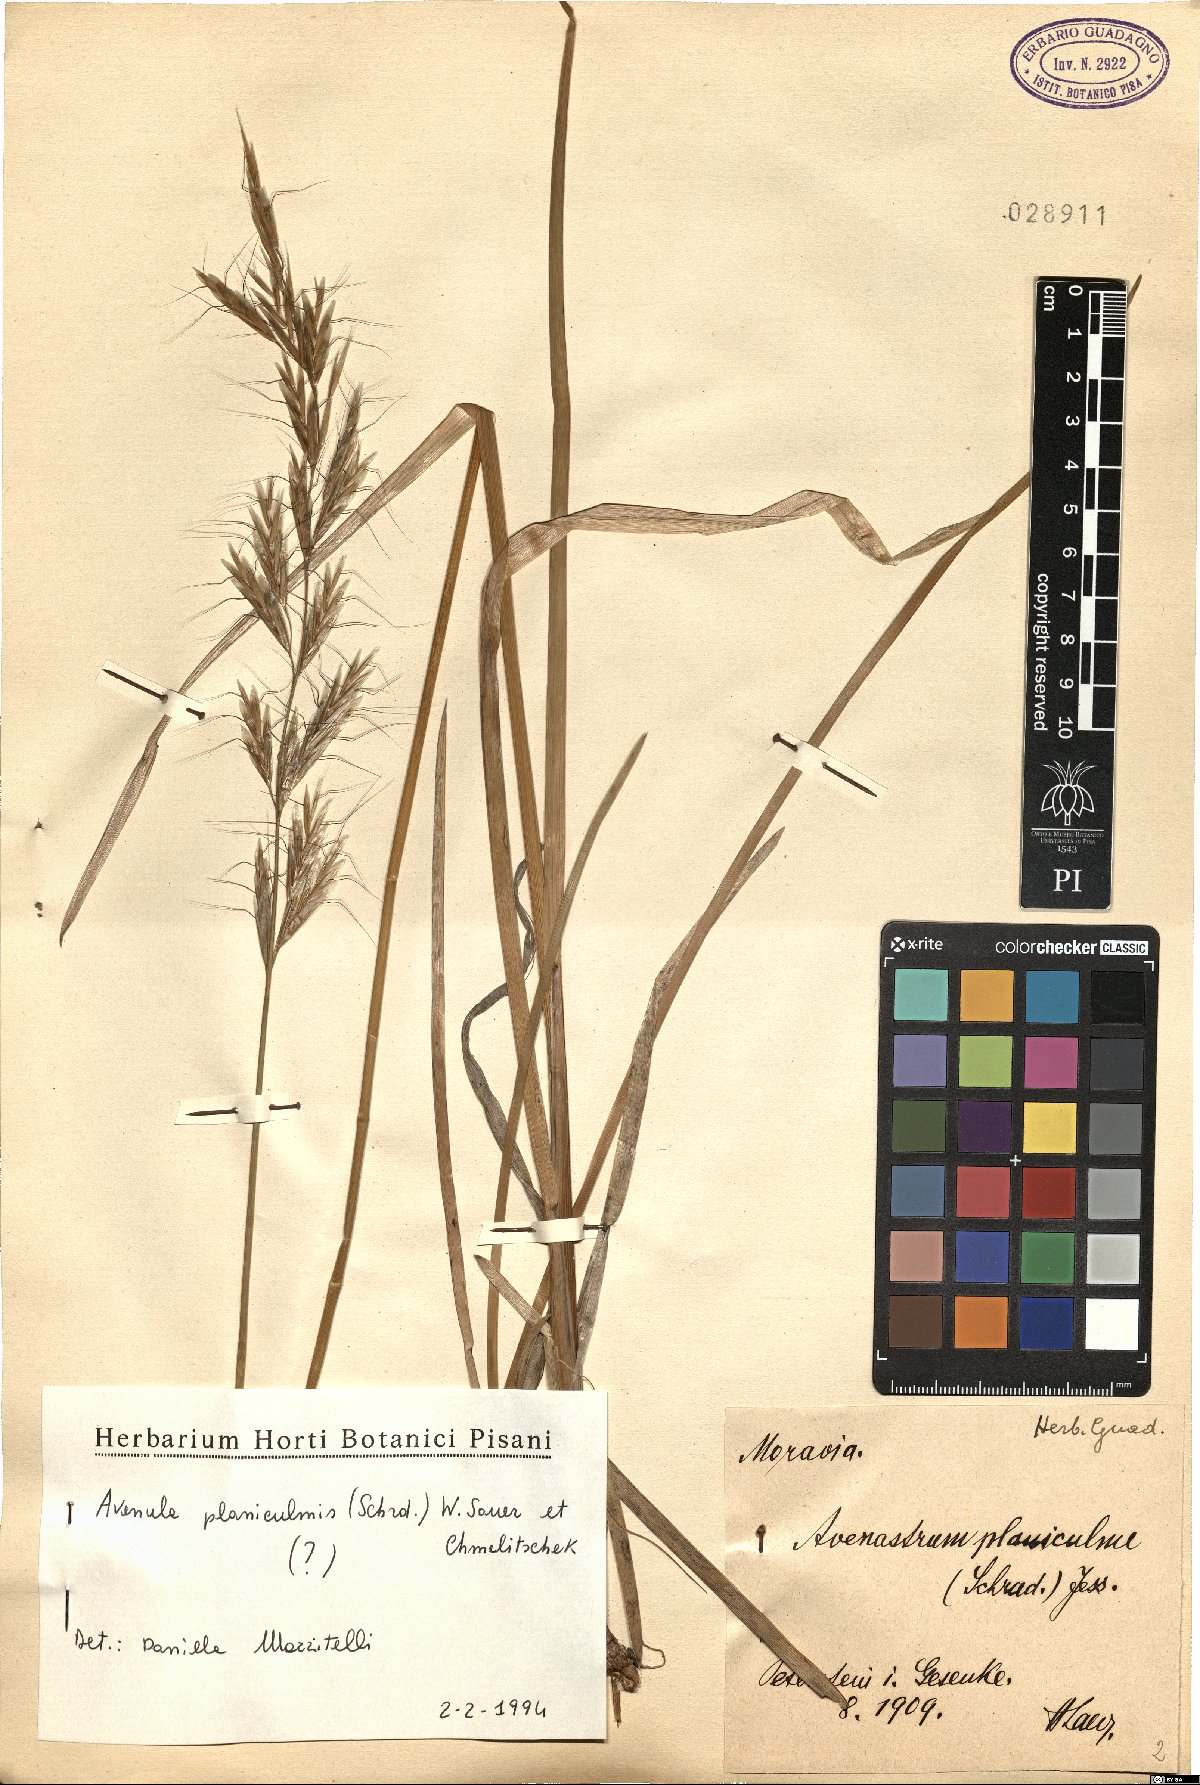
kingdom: Plantae
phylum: Tracheophyta
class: Liliopsida
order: Poales
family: Poaceae
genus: Helictochloa
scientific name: Helictochloa planiculmis
